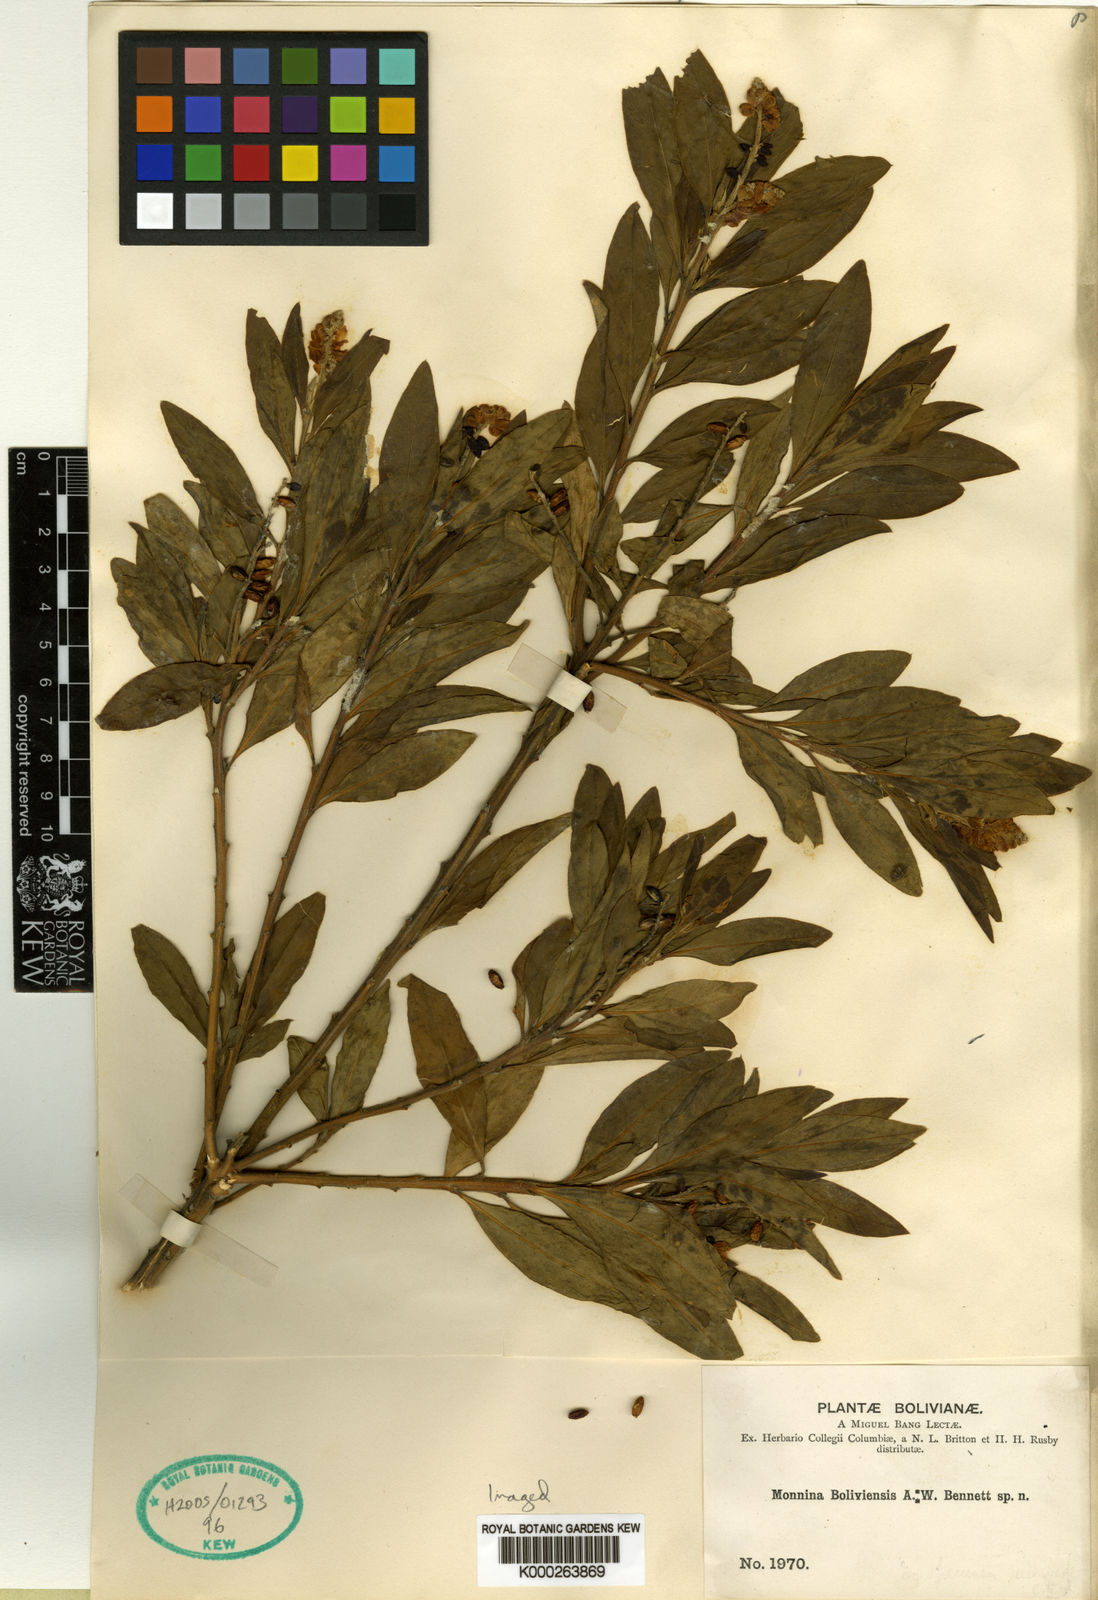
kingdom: Plantae
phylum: Tracheophyta
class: Magnoliopsida
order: Fabales
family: Polygalaceae
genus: Monnina
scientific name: Monnina boliviensis
